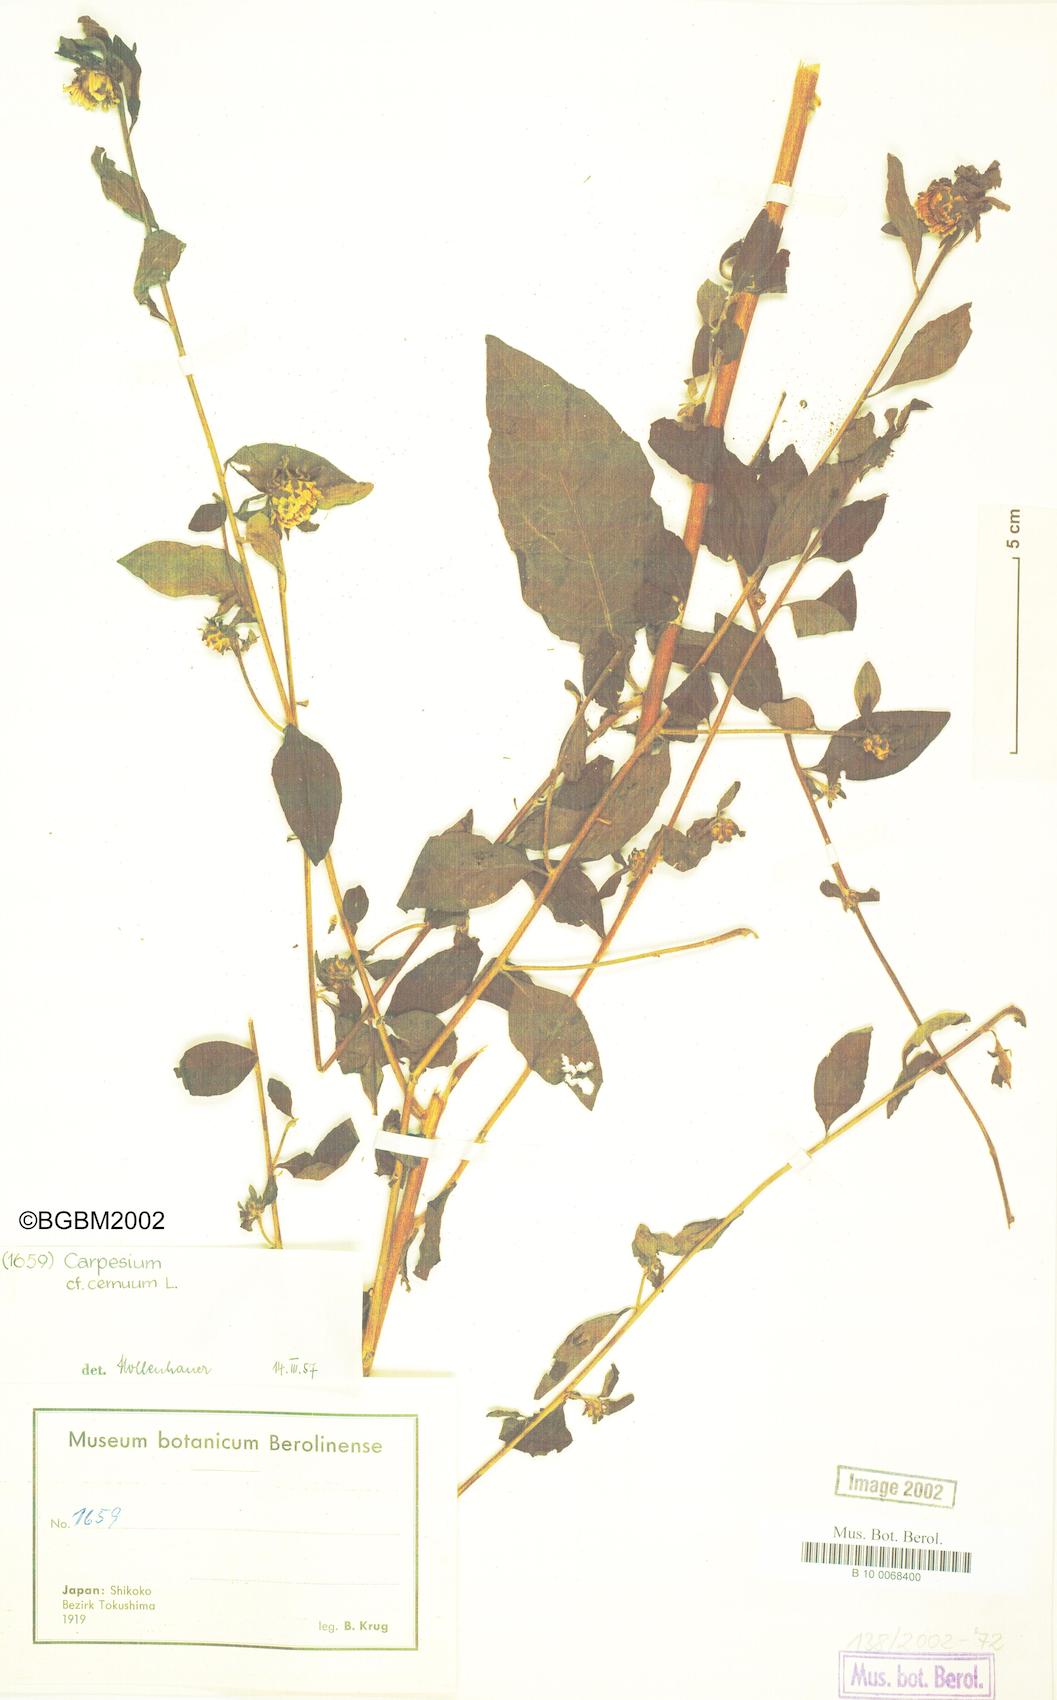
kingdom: Plantae
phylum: Tracheophyta
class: Magnoliopsida
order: Asterales
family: Asteraceae
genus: Carpesium
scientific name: Carpesium cernuum
